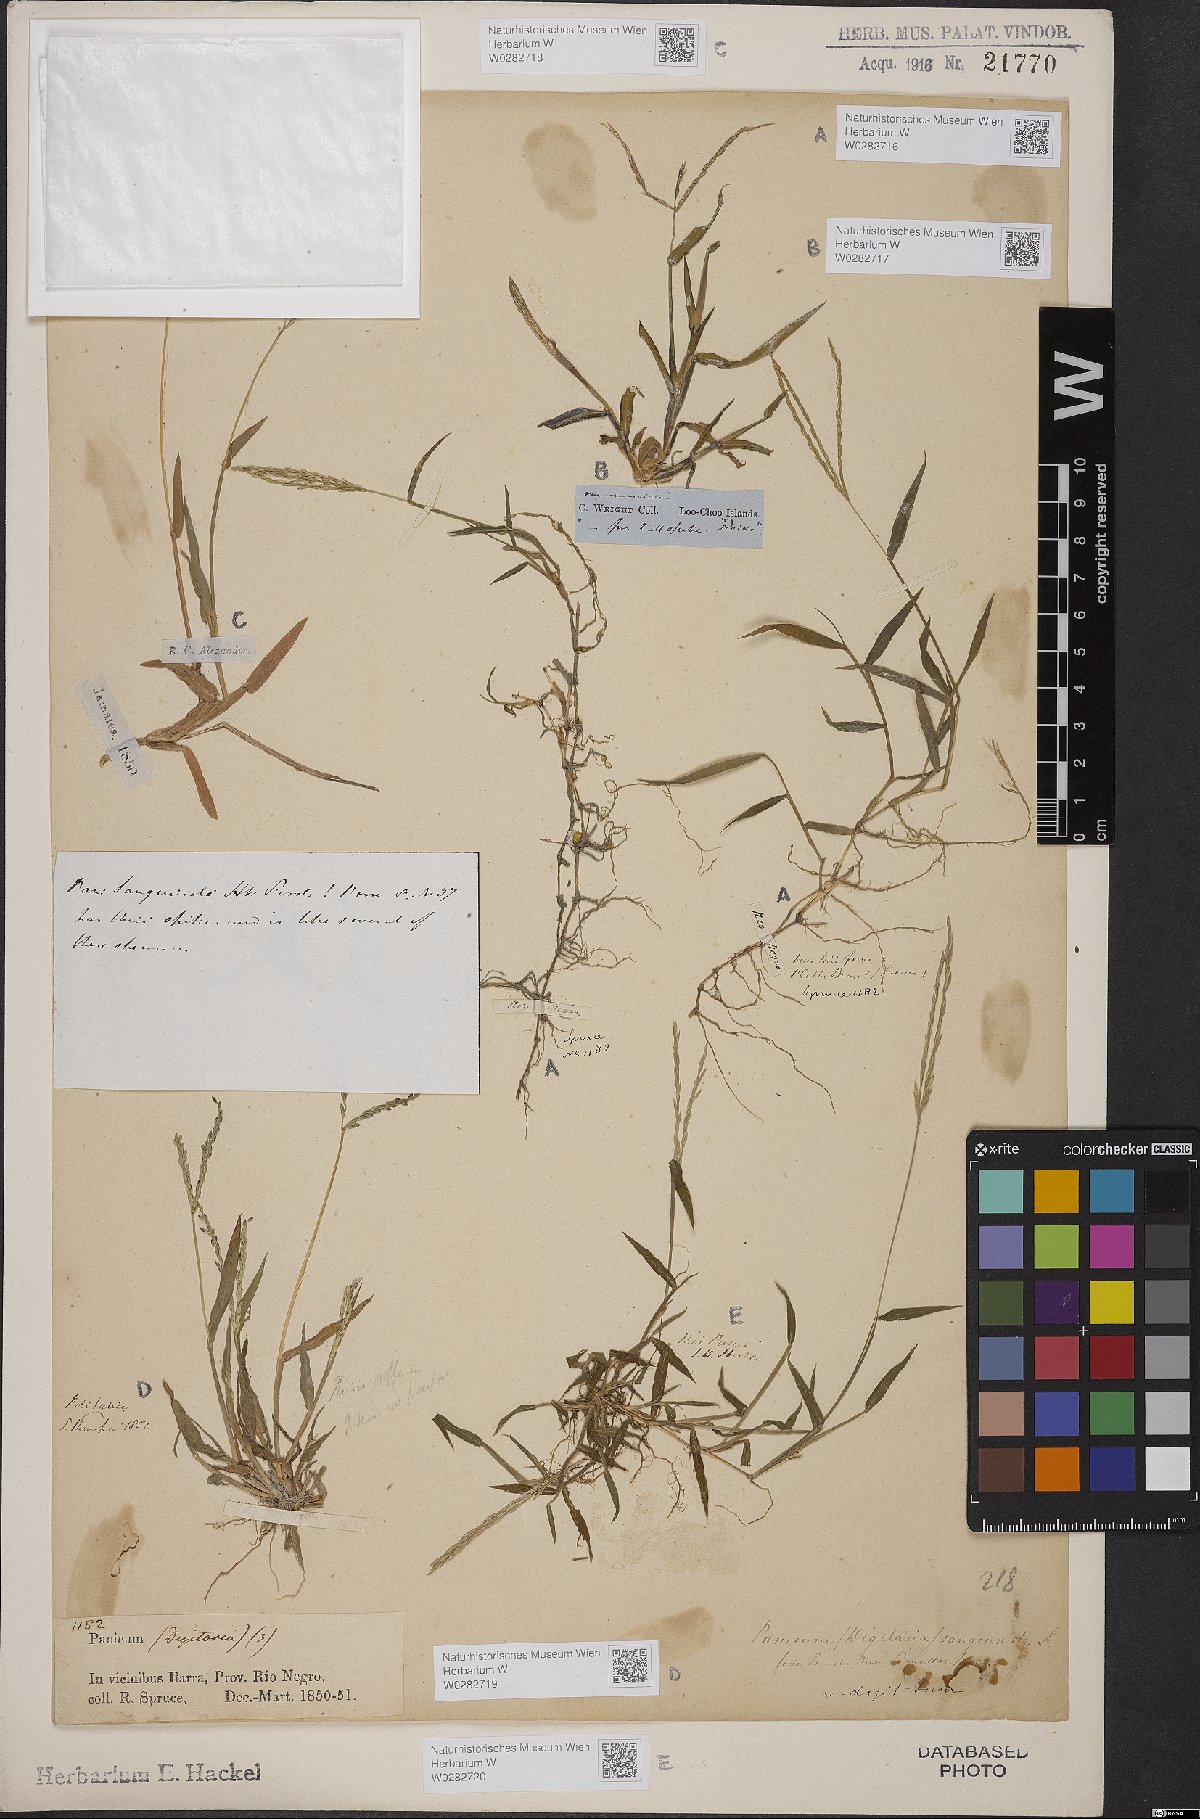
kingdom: Plantae
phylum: Tracheophyta
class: Liliopsida
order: Poales
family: Poaceae
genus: Digitaria
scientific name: Digitaria sanguinalis
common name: Hairy crabgrass
